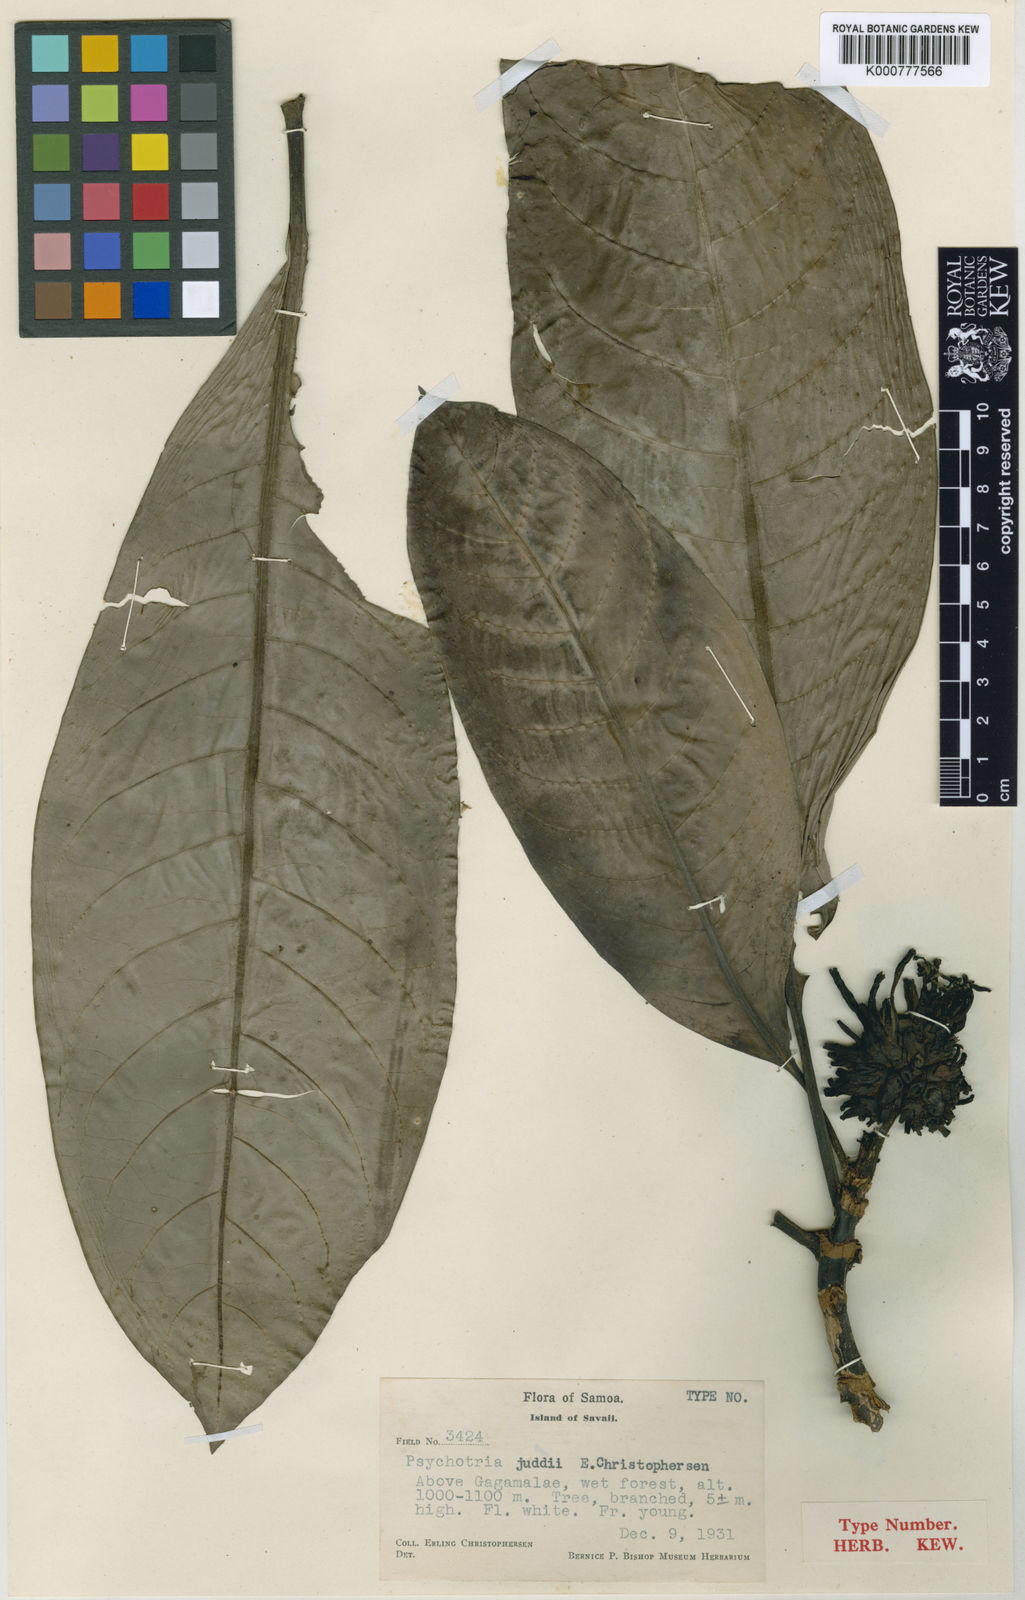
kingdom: Plantae
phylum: Tracheophyta
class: Magnoliopsida
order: Gentianales
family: Rubiaceae
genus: Psychotria
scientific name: Psychotria juddii
